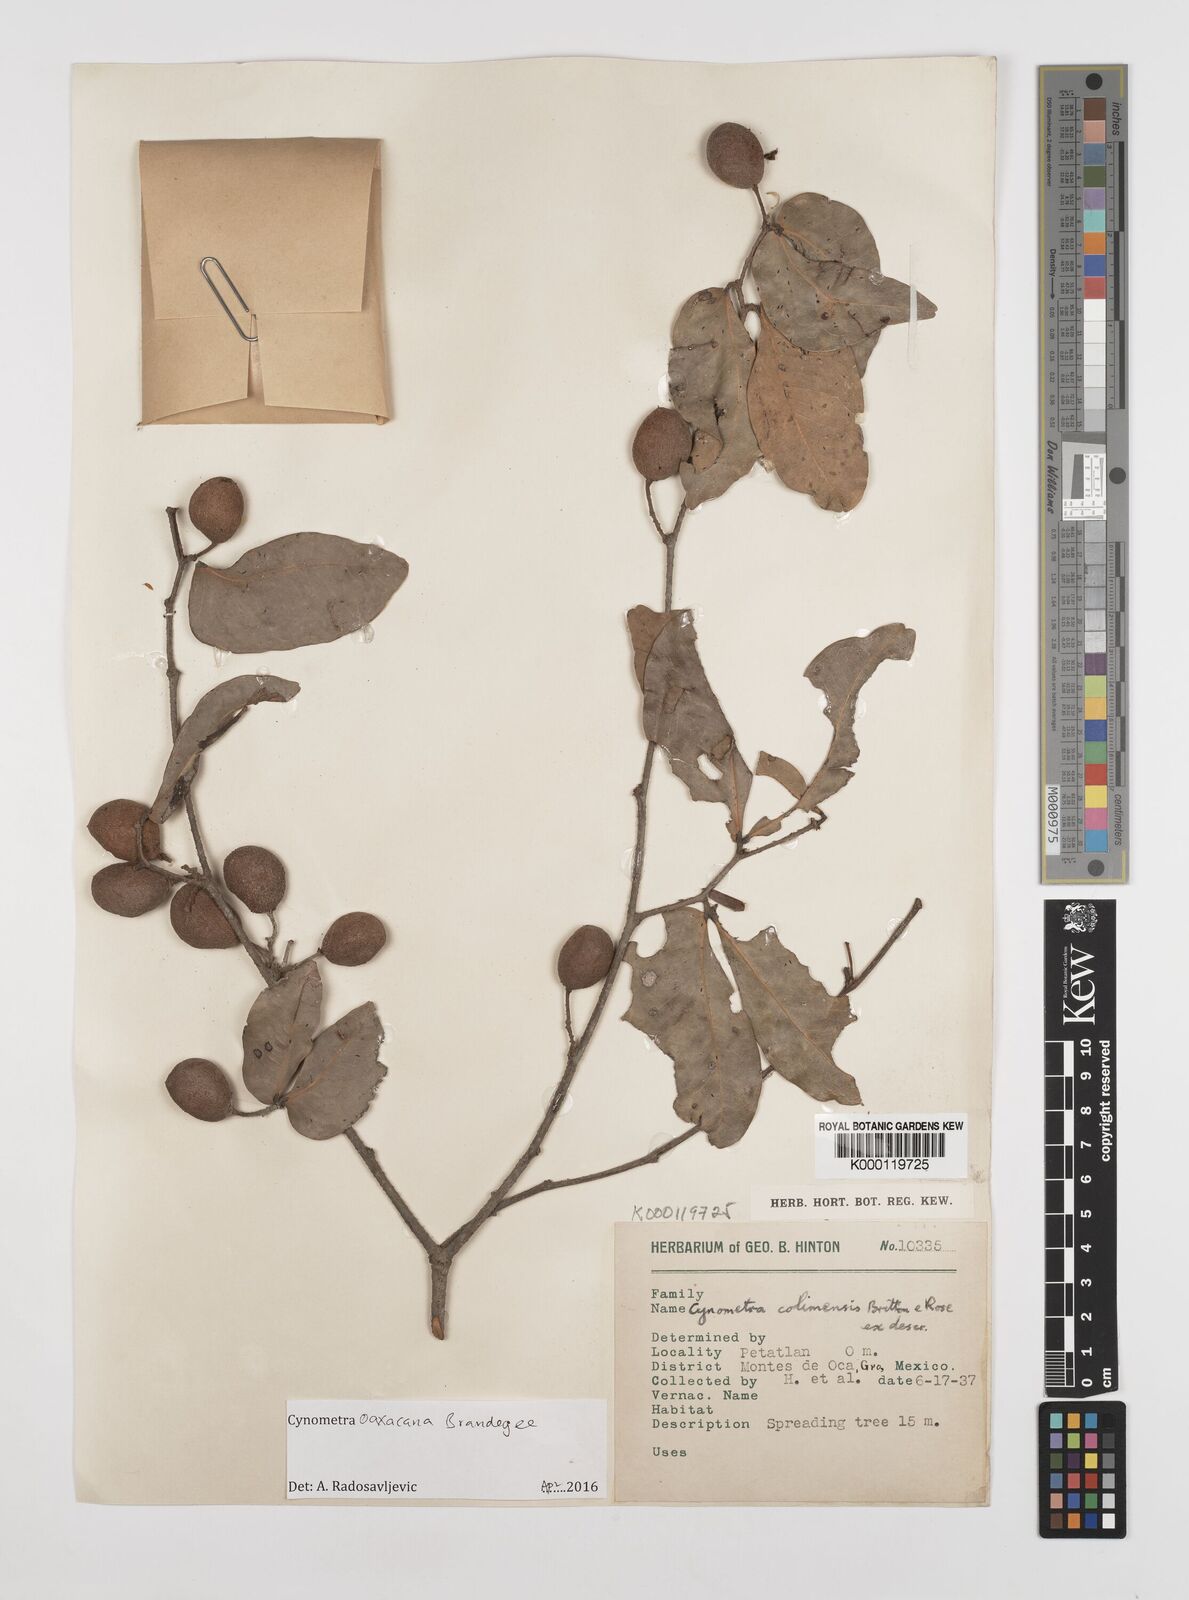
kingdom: Plantae
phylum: Tracheophyta
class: Magnoliopsida
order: Fabales
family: Fabaceae
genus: Cynometra
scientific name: Cynometra oaxacana
